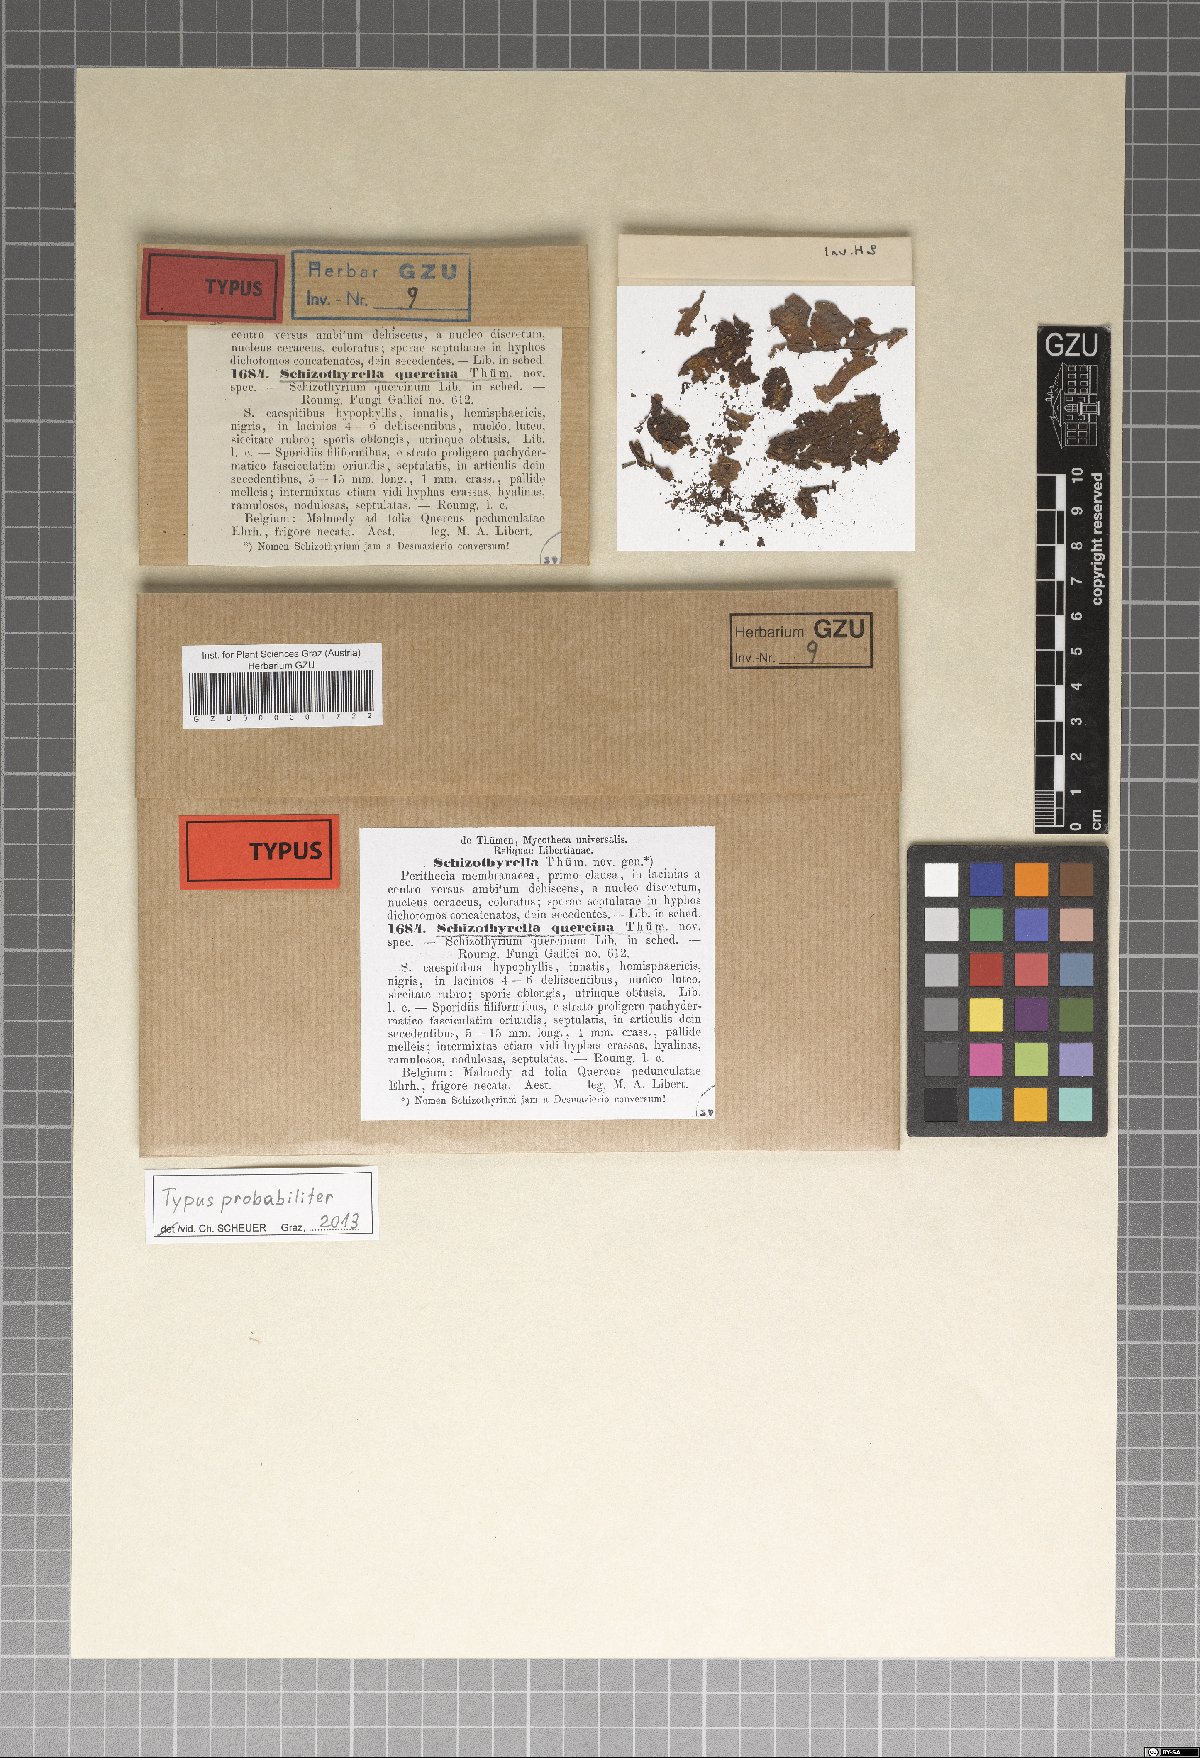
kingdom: Fungi
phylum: Ascomycota
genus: Schizothyrella
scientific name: Schizothyrella quercina
